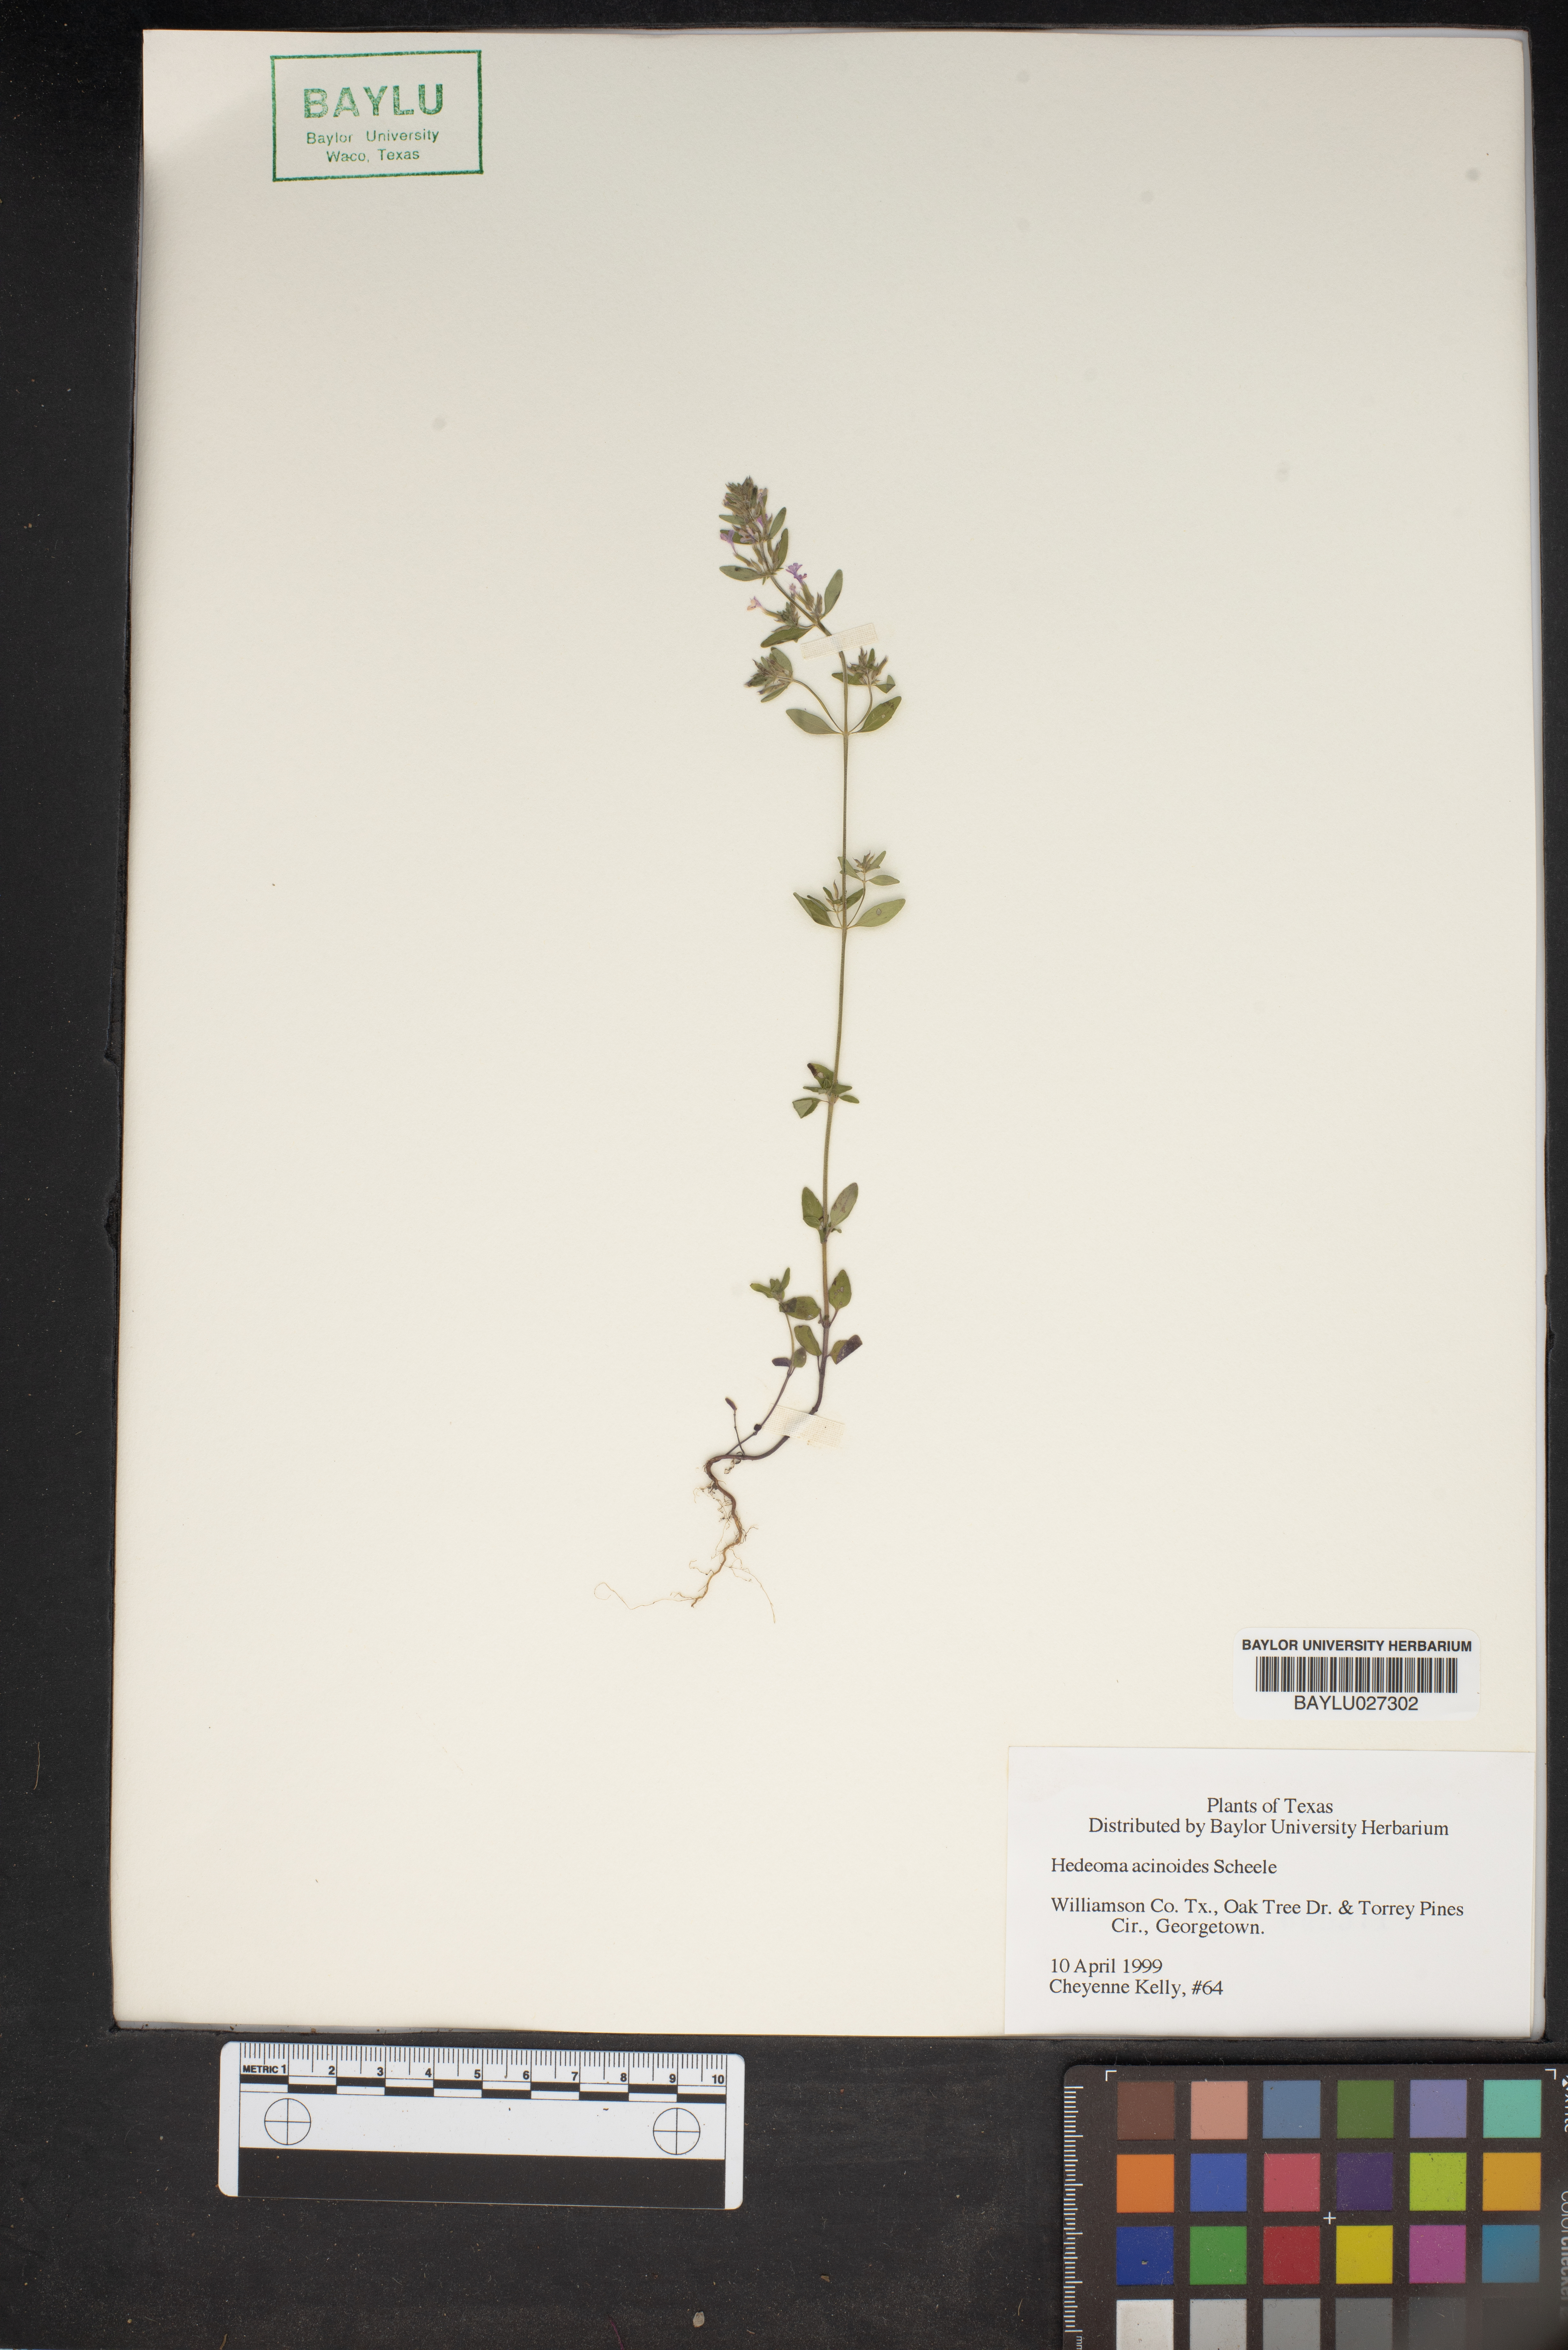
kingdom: Plantae
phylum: Tracheophyta
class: Magnoliopsida
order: Lamiales
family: Lamiaceae
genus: Hedeoma
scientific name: Hedeoma acinoides
